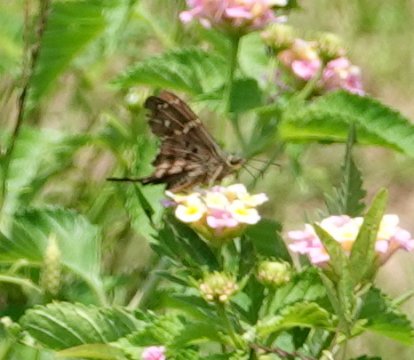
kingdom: Animalia
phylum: Arthropoda
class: Insecta
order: Lepidoptera
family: Hesperiidae
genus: Urbanus
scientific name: Urbanus proteus
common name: Long-tailed Skipper
